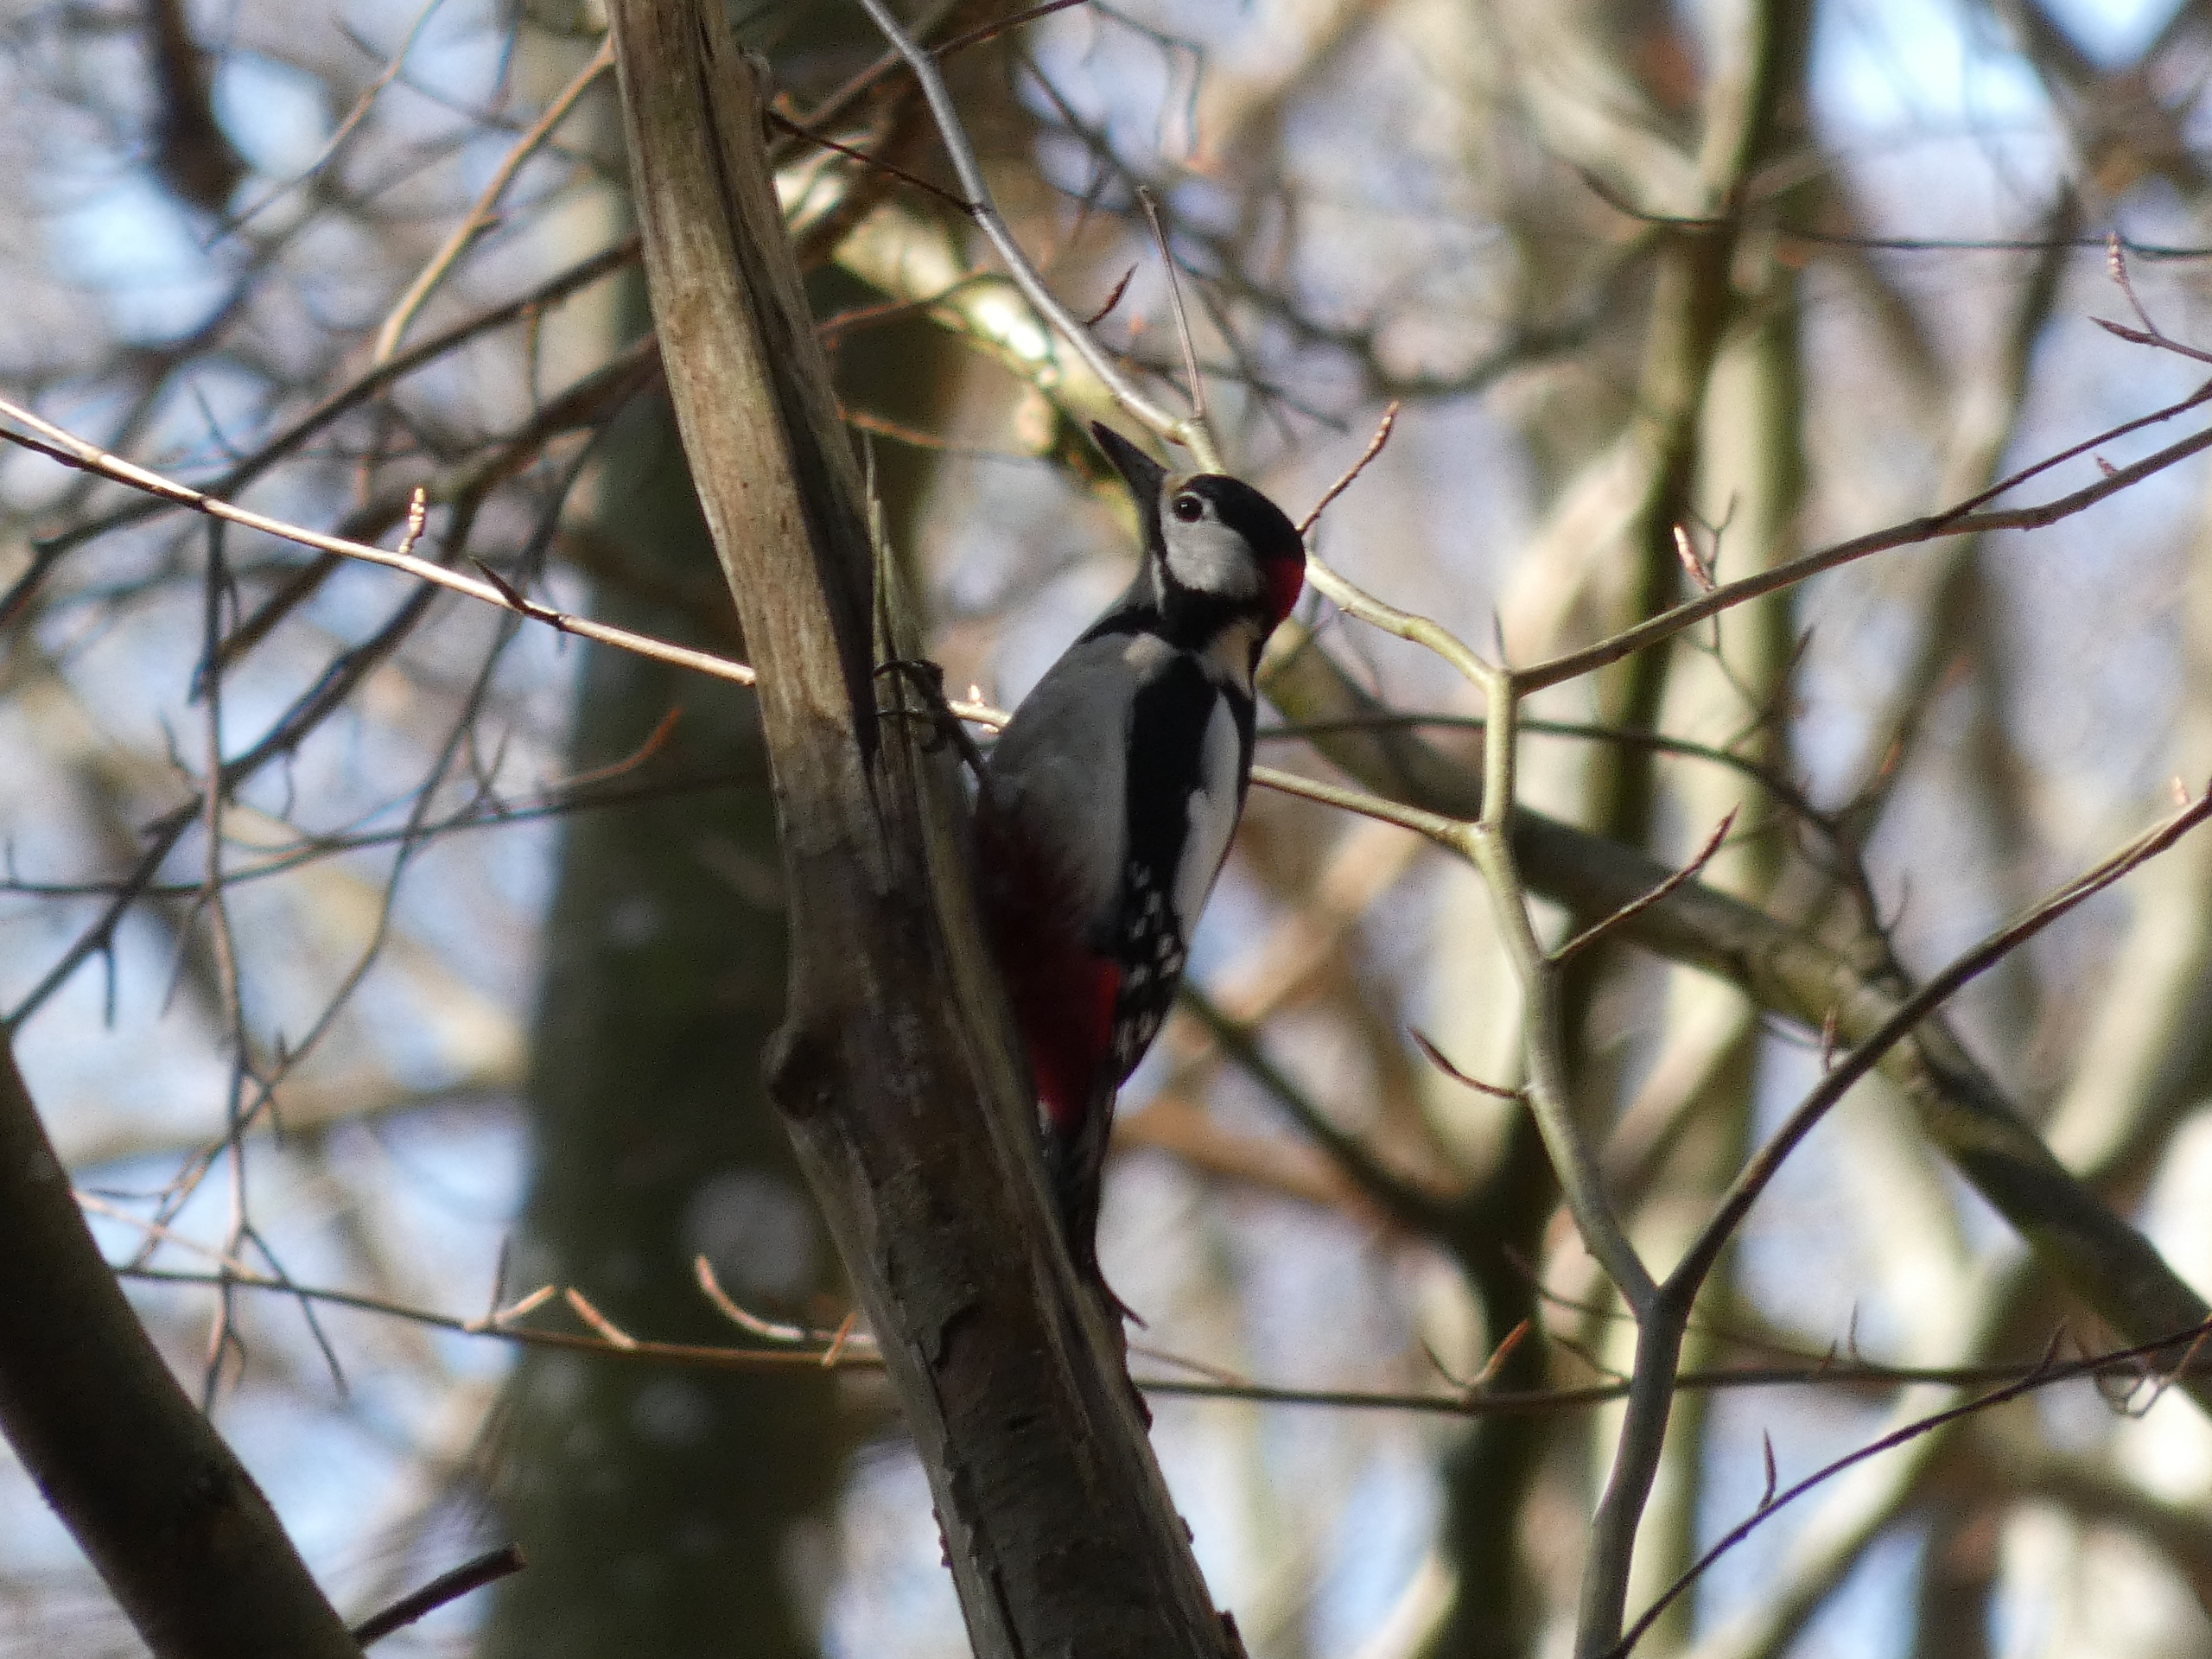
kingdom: Animalia
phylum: Chordata
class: Aves
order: Piciformes
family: Picidae
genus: Dendrocopos
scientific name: Dendrocopos major
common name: Stor flagspætte
